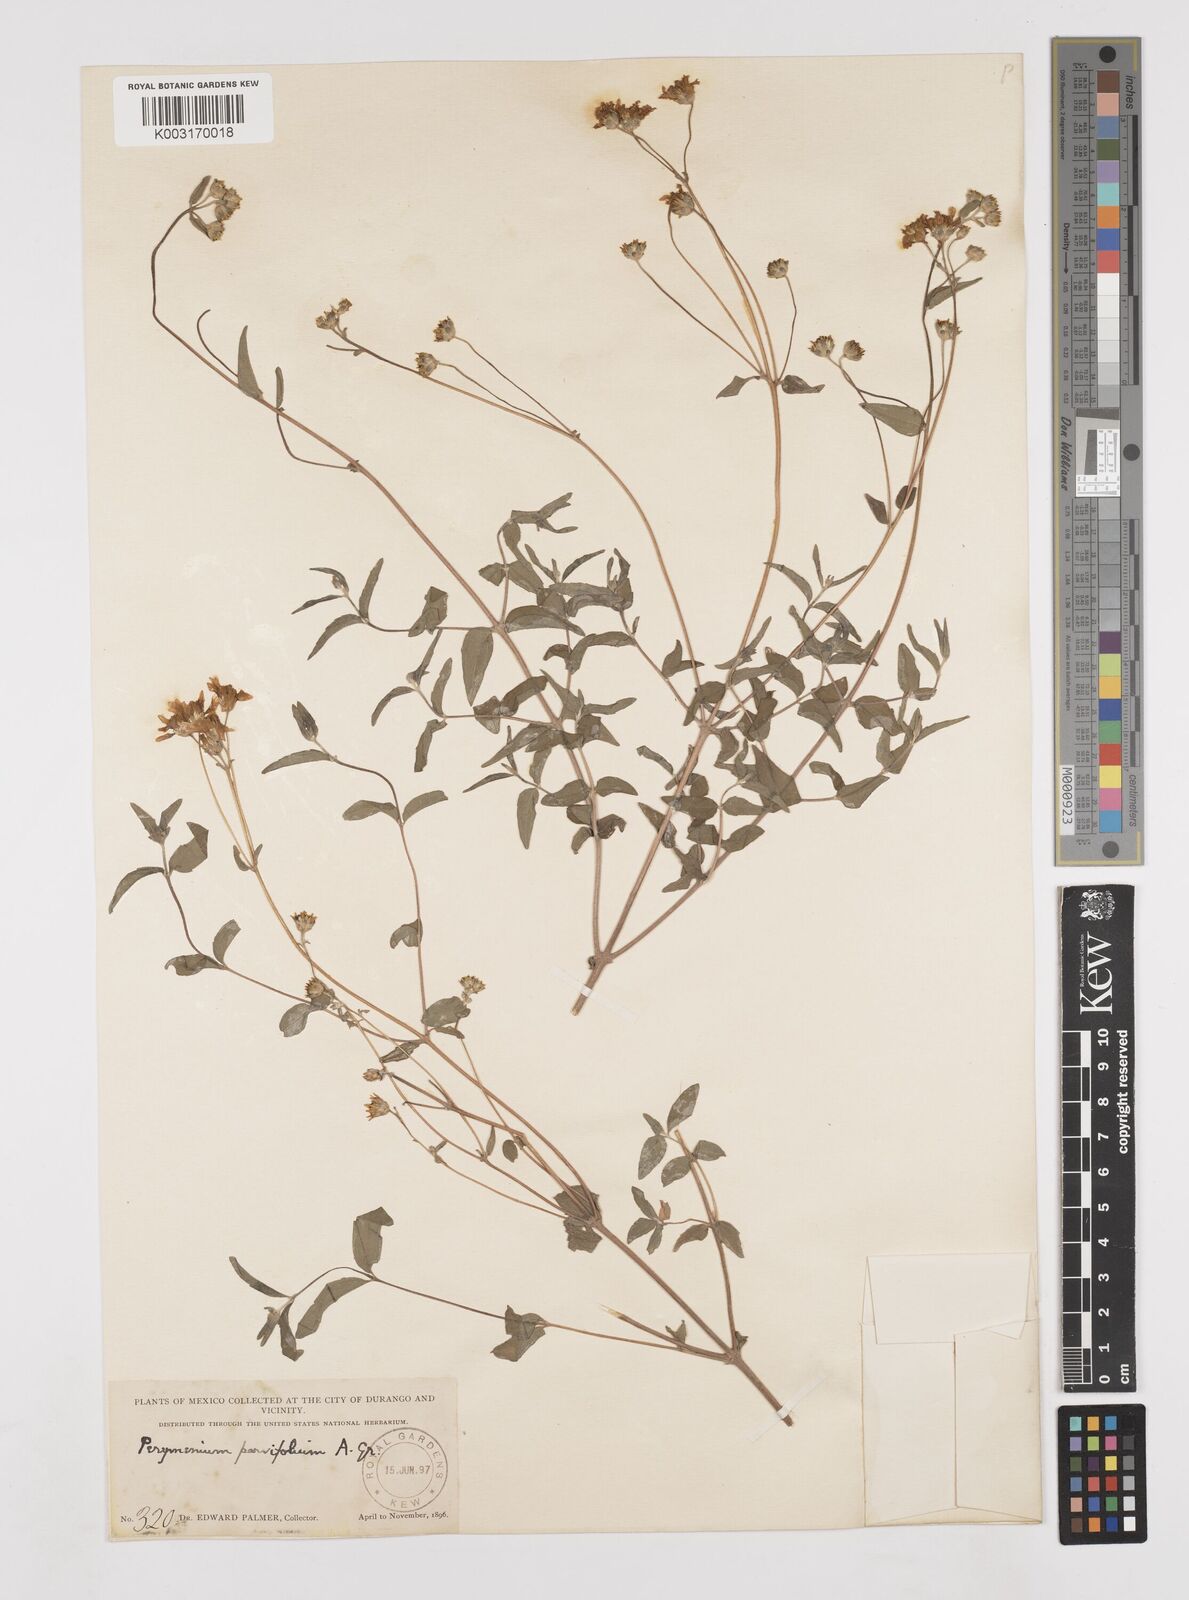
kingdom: Plantae
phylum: Tracheophyta
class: Magnoliopsida
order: Asterales
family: Asteraceae
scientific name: Asteraceae
